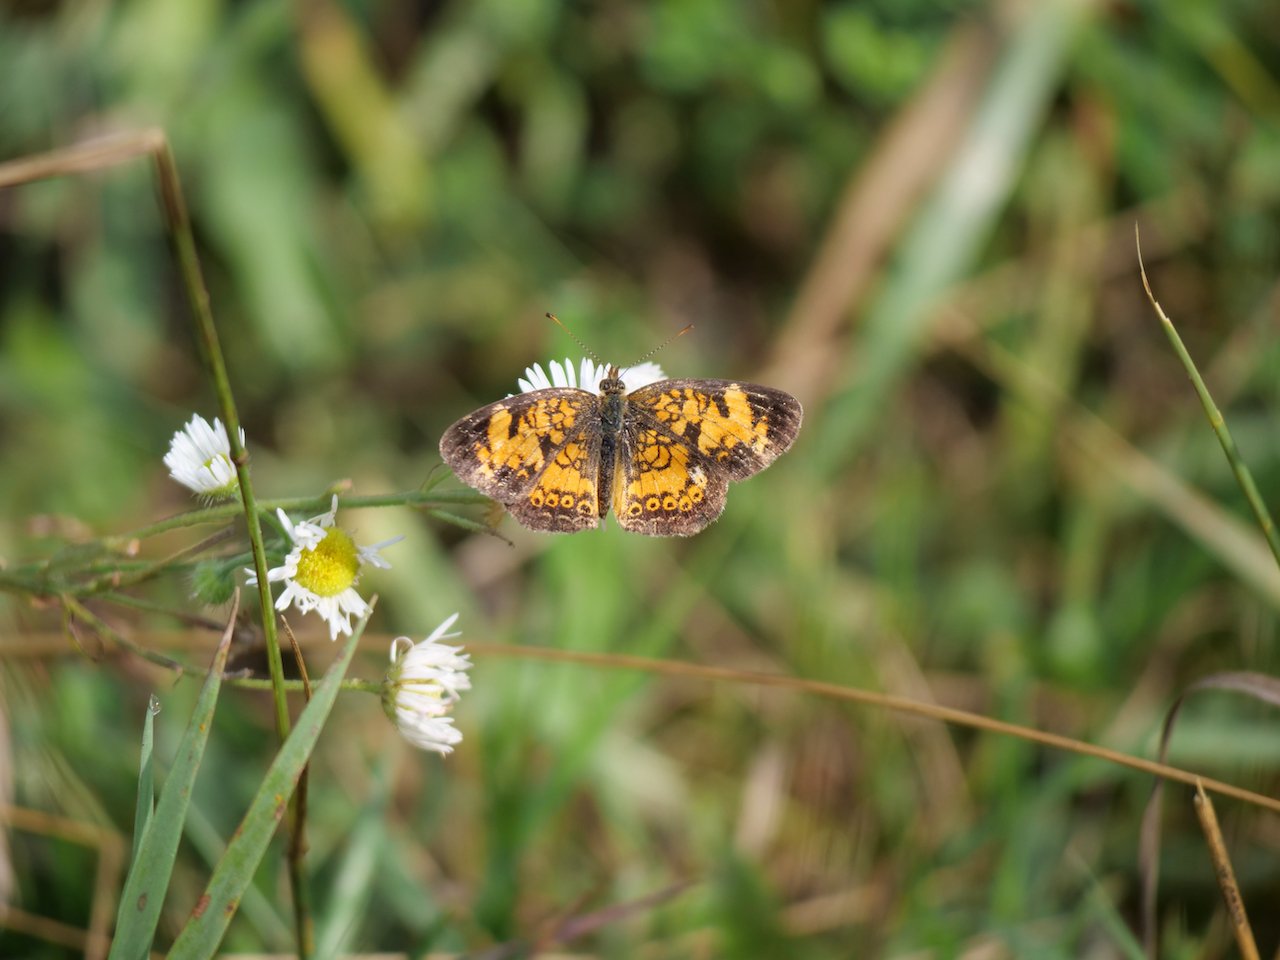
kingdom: Animalia
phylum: Arthropoda
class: Insecta
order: Lepidoptera
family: Nymphalidae
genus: Phyciodes
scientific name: Phyciodes tharos
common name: Northern Crescent
